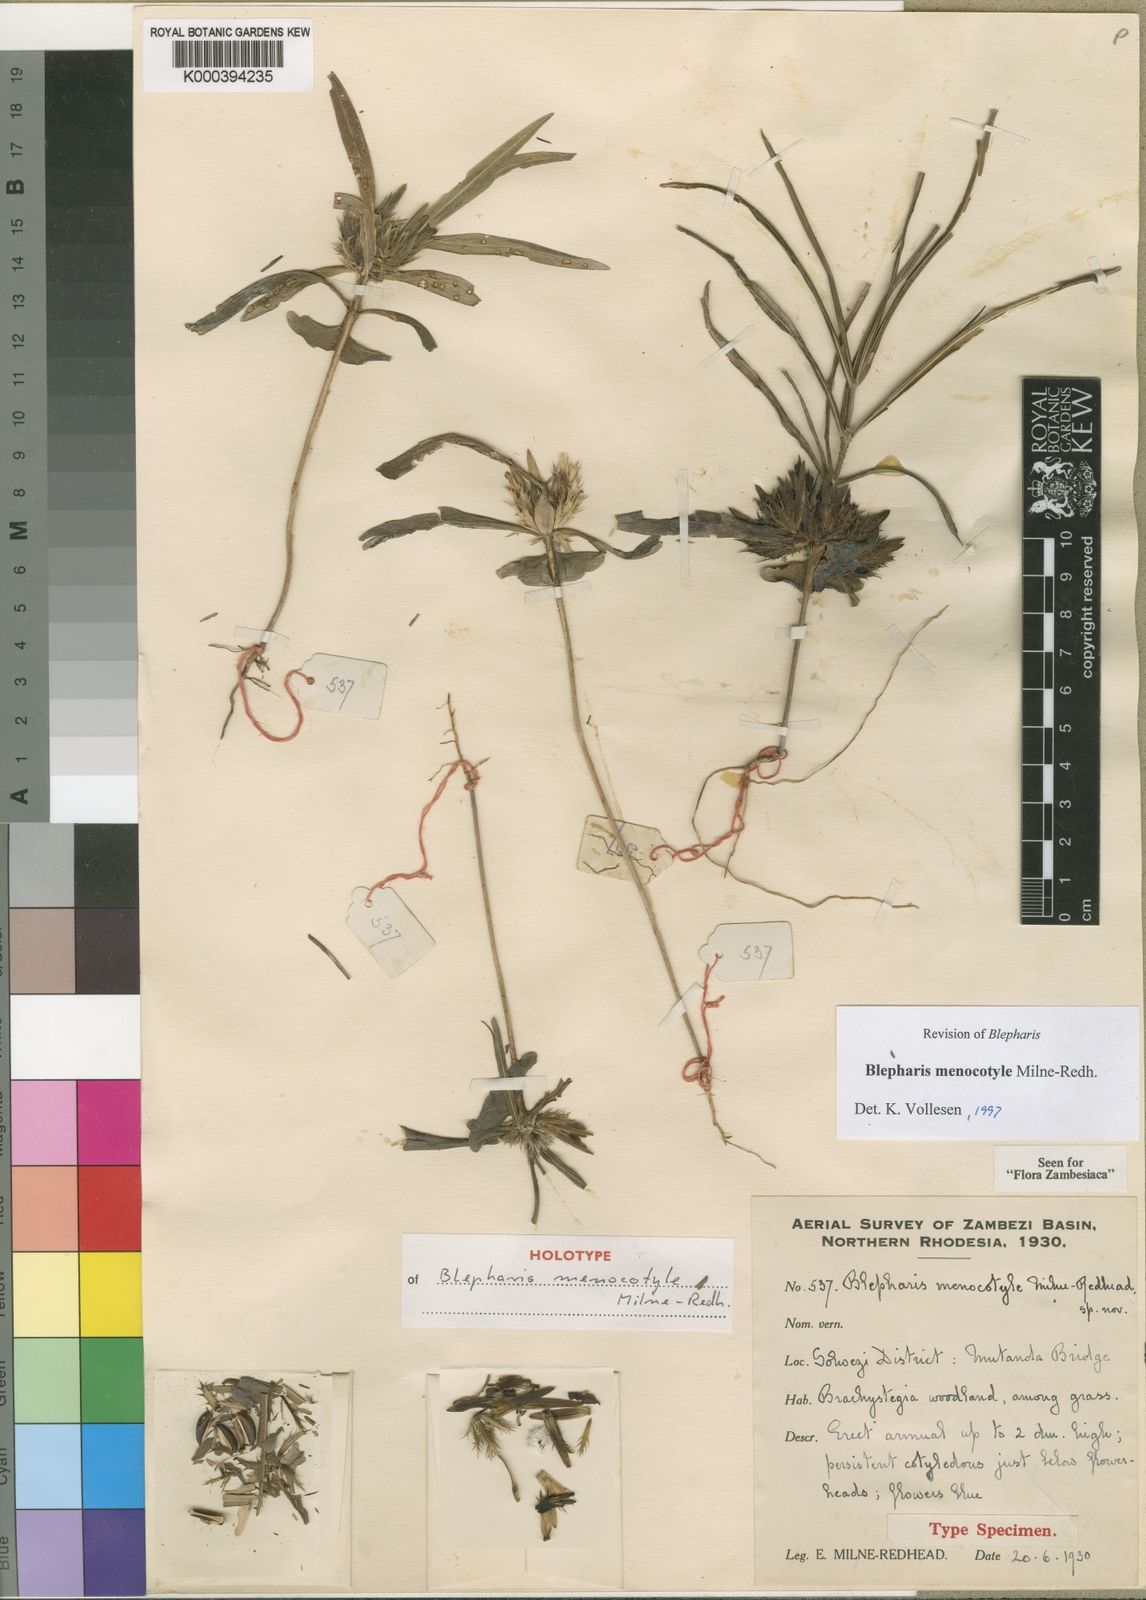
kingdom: Plantae
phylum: Tracheophyta
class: Magnoliopsida
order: Lamiales
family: Acanthaceae
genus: Blepharis
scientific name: Blepharis menocotyle
